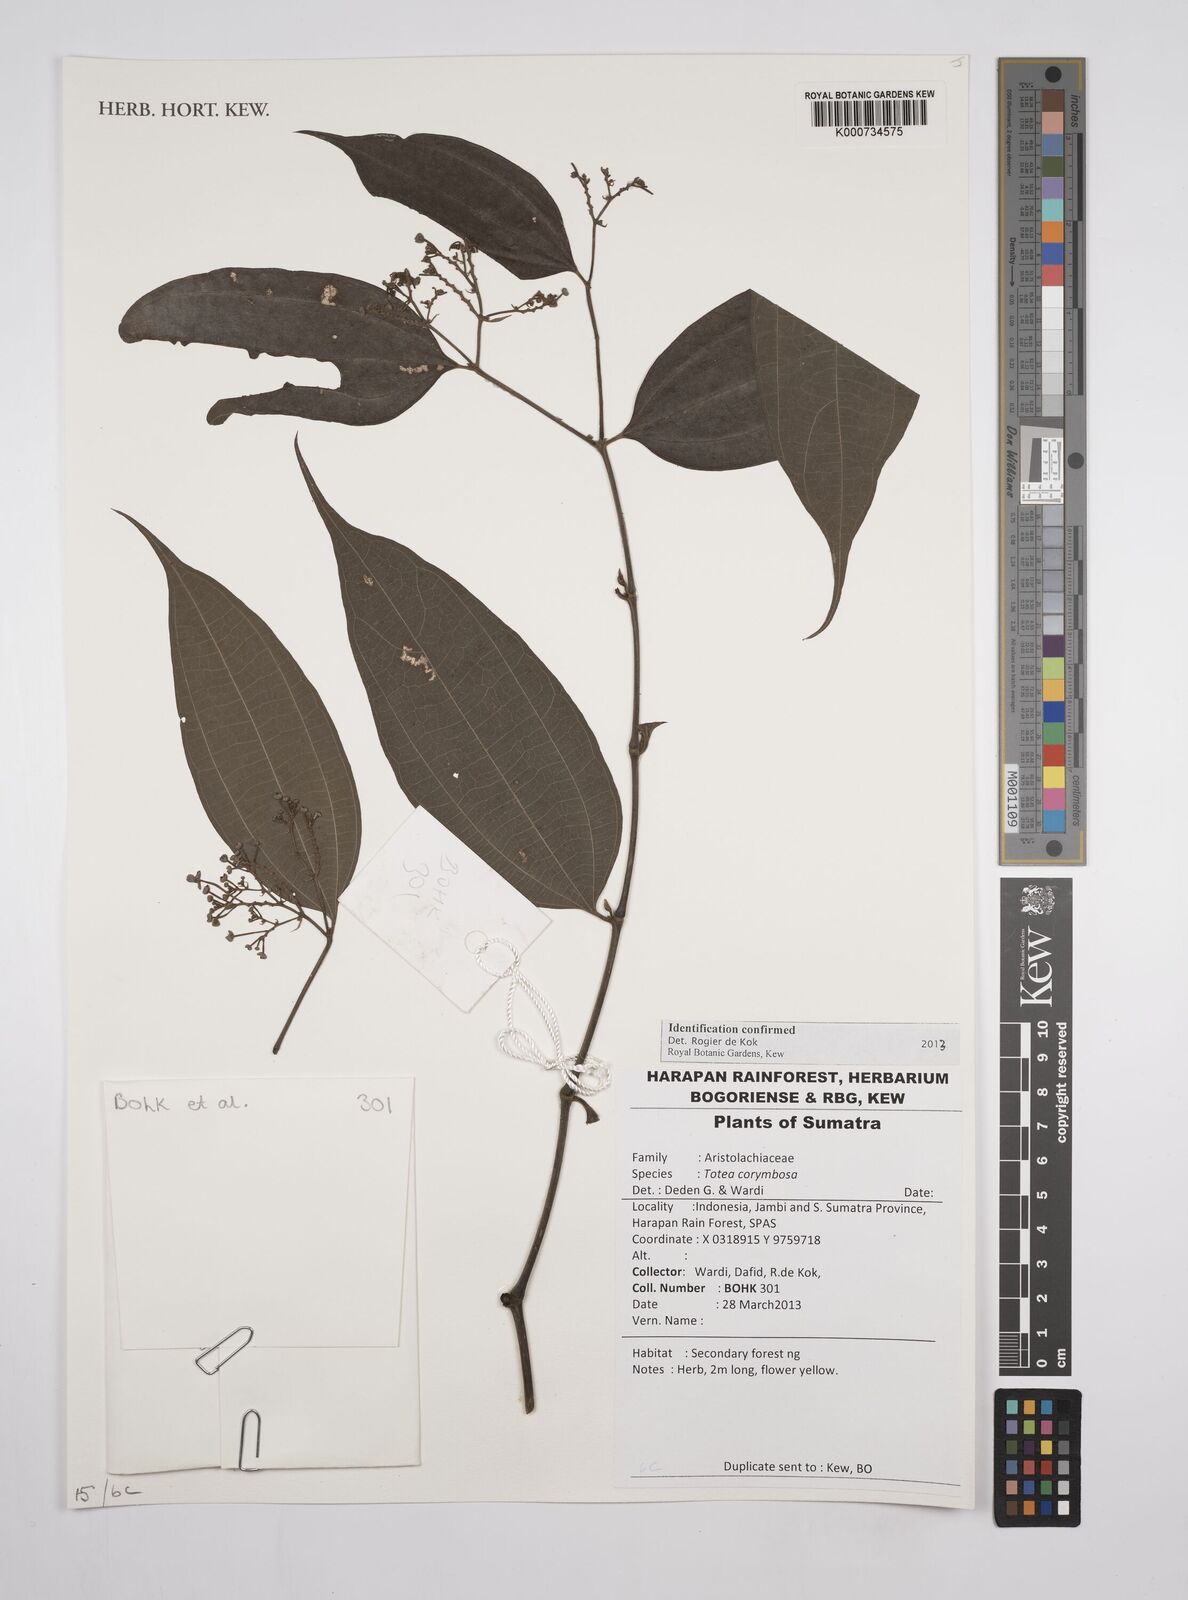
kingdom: Plantae
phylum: Tracheophyta
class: Magnoliopsida
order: Piperales
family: Aristolochiaceae
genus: Thottea
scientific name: Thottea
